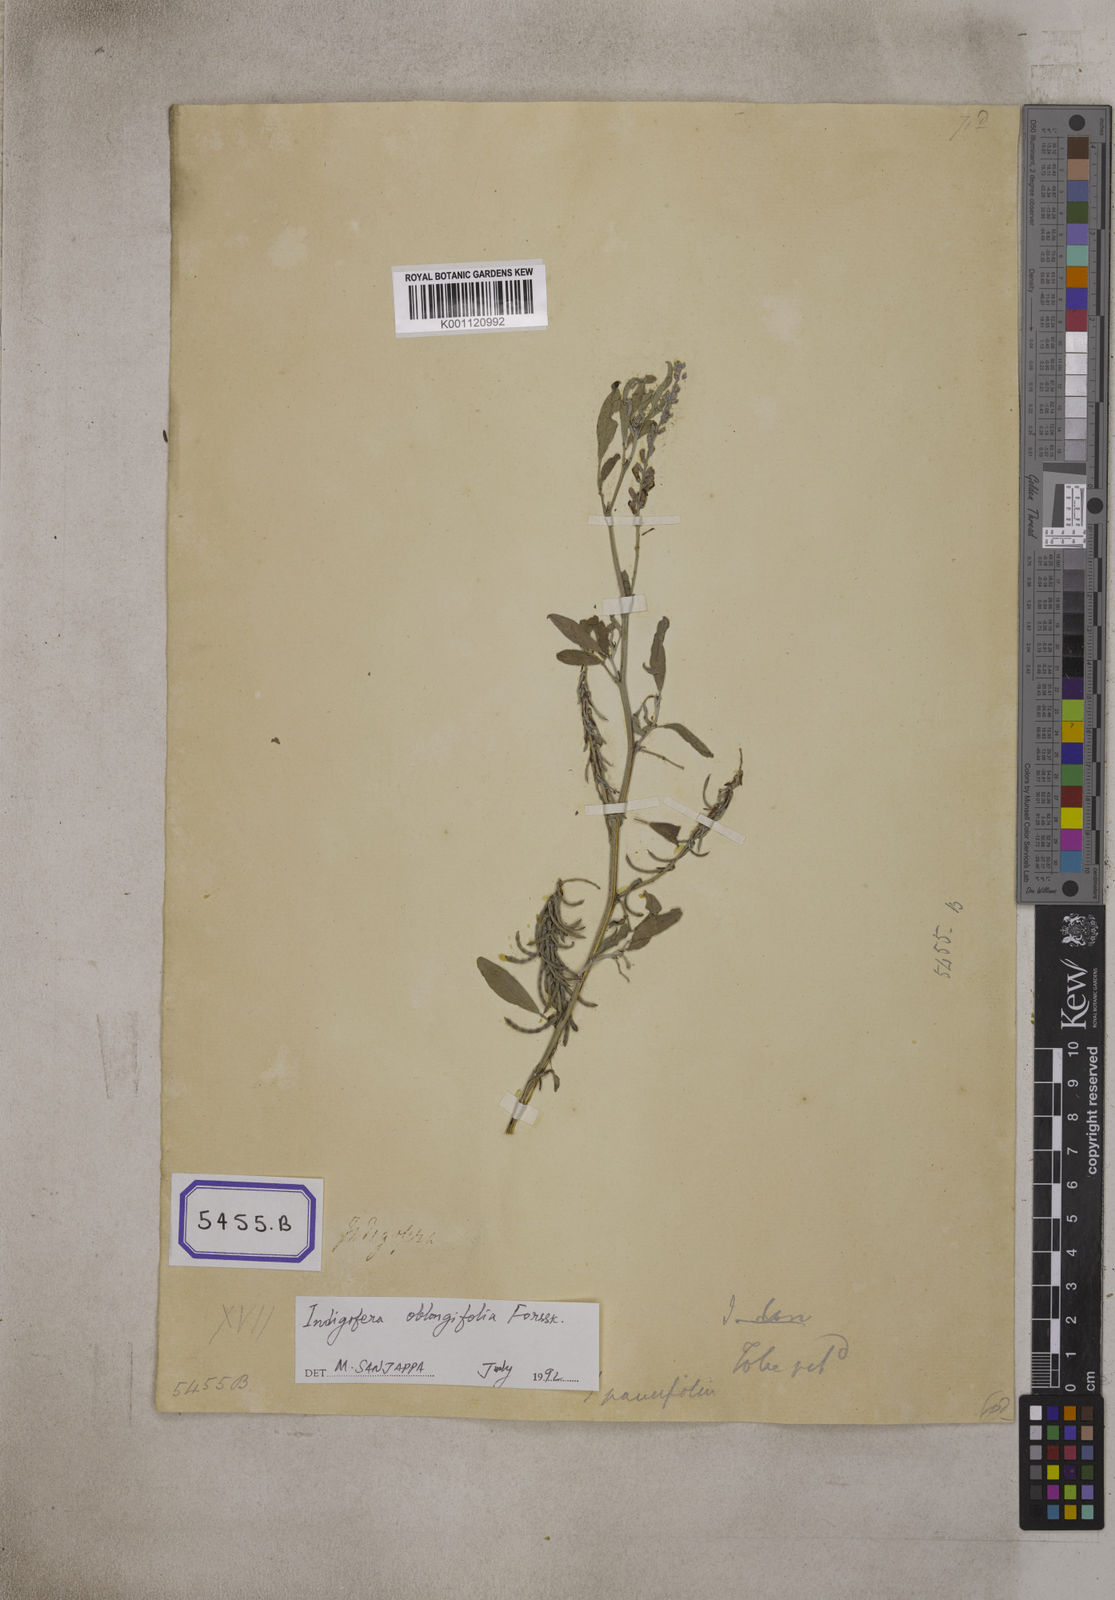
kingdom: Plantae
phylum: Tracheophyta
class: Magnoliopsida
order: Fabales
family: Fabaceae
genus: Indigofera
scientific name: Indigofera
